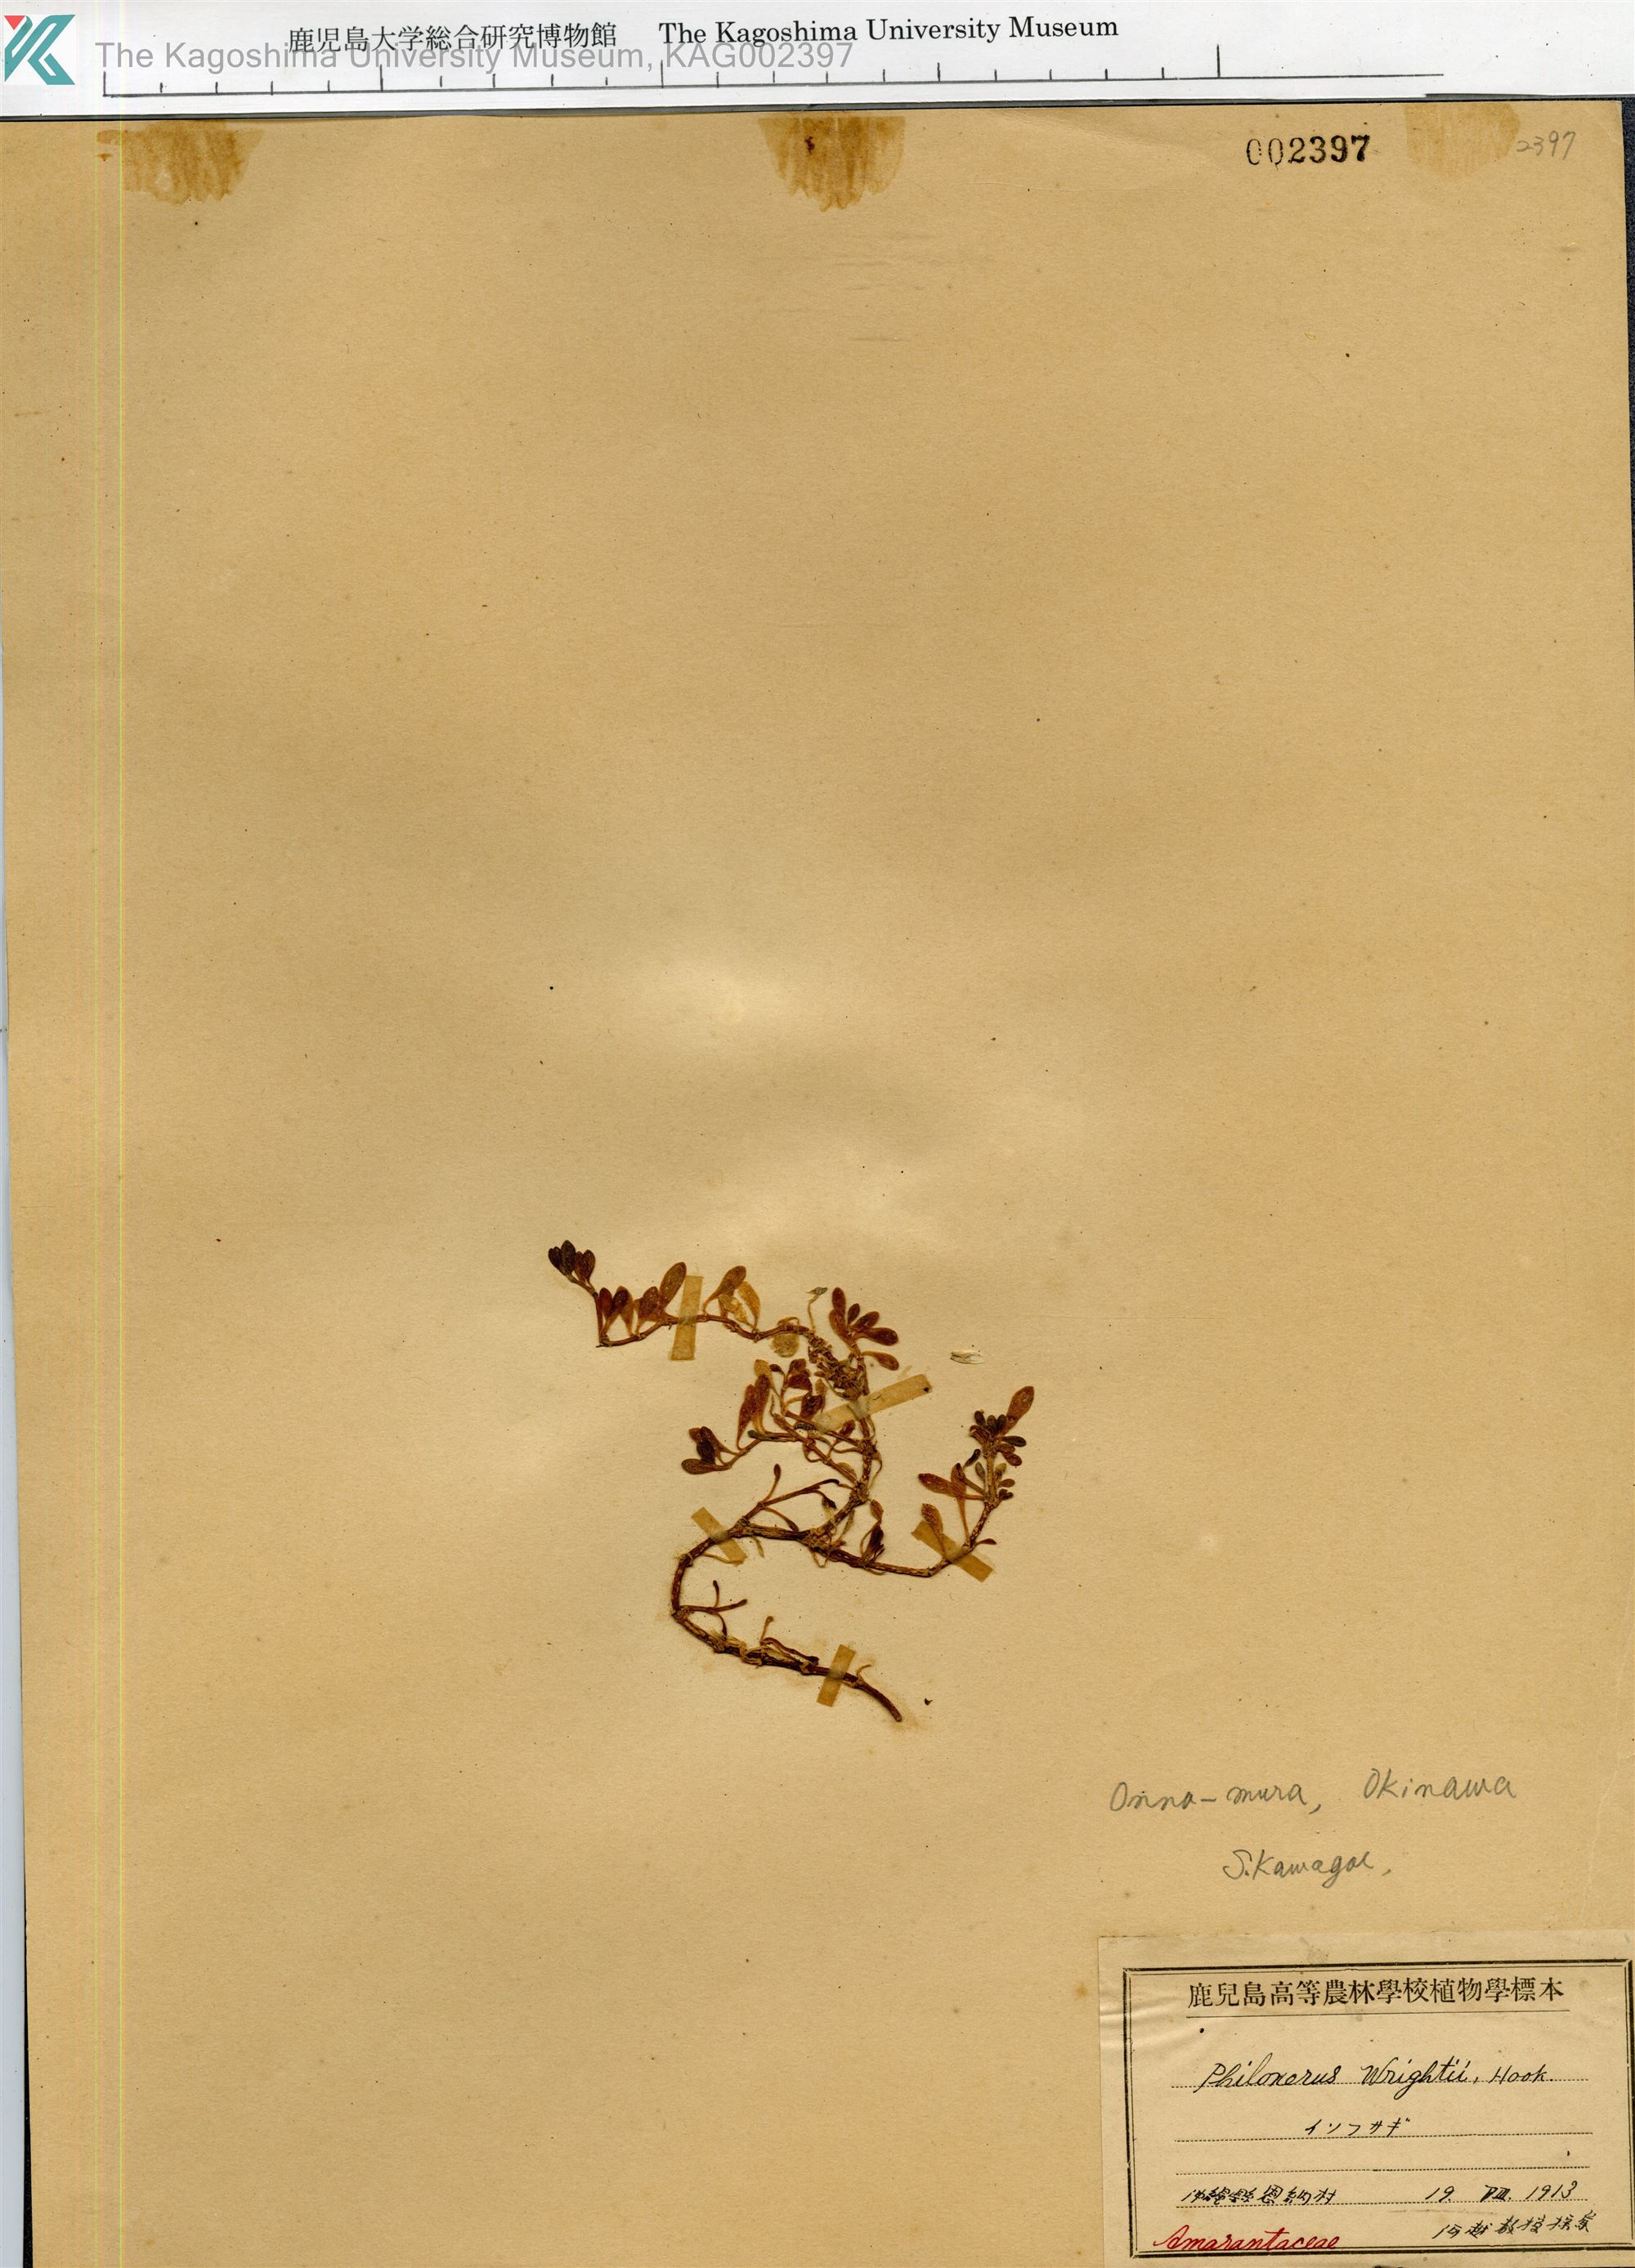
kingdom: Plantae
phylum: Tracheophyta
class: Magnoliopsida
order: Caryophyllales
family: Amaranthaceae
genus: Gomphrena
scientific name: Gomphrena wrightii
